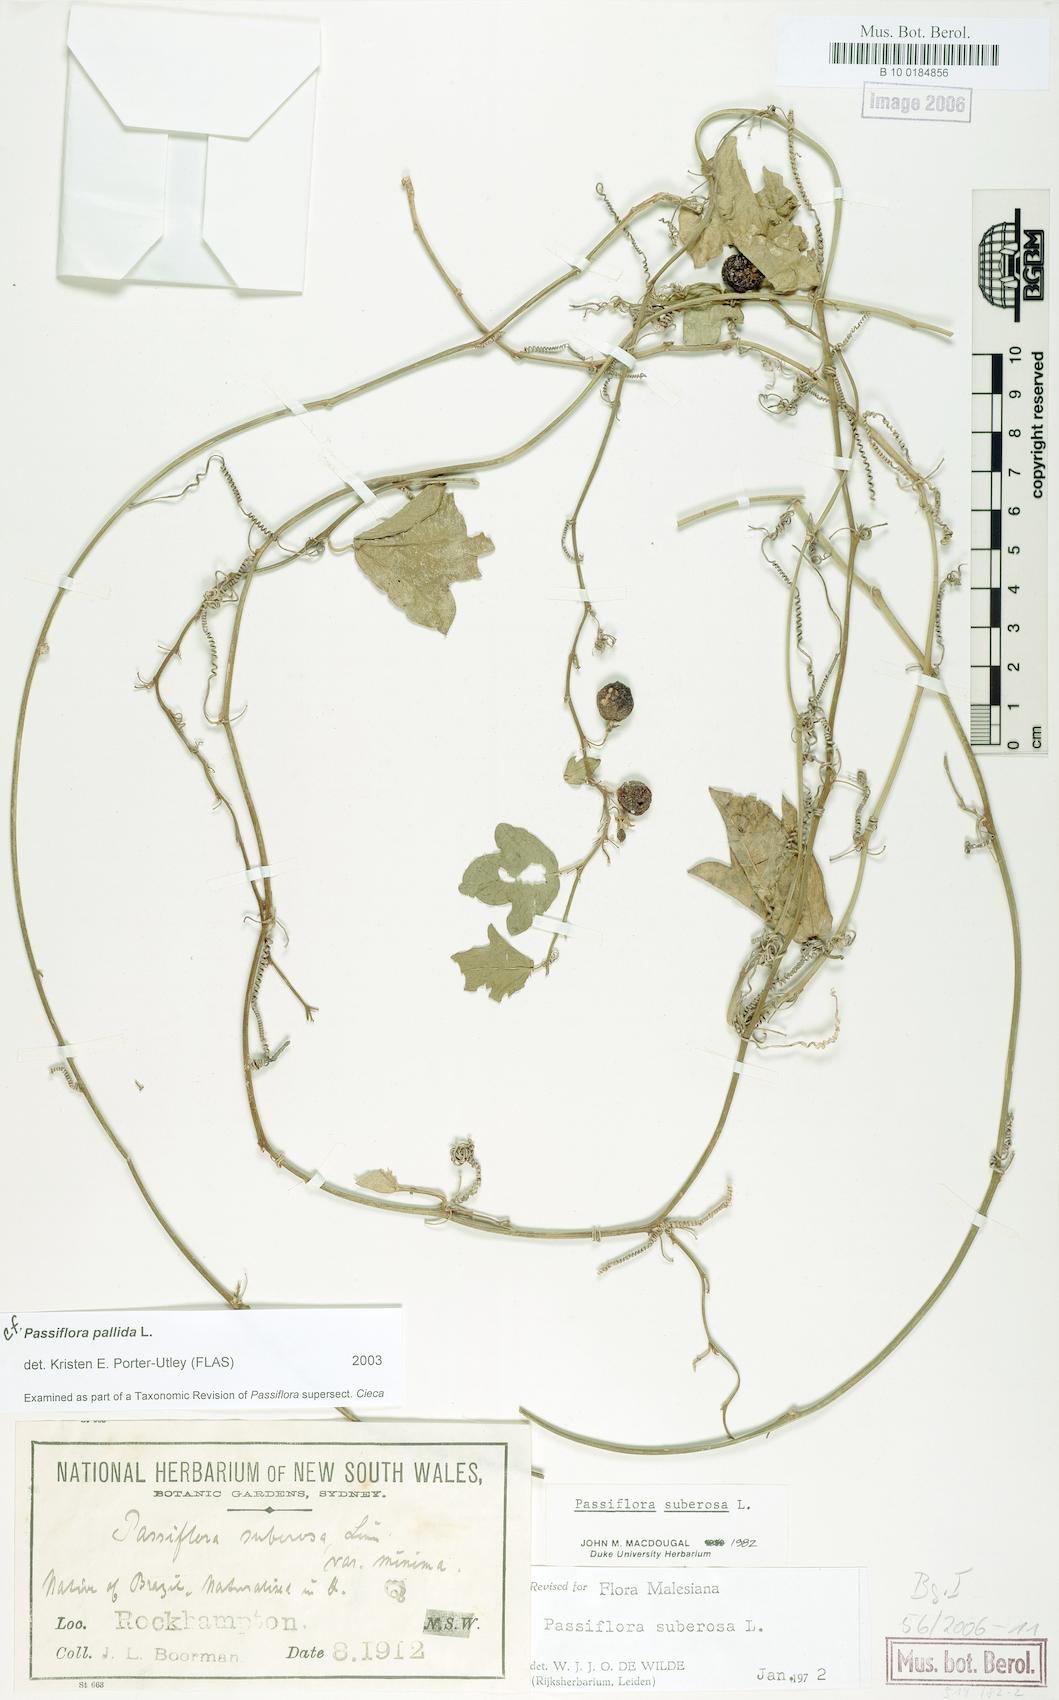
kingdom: Plantae
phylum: Tracheophyta
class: Magnoliopsida
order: Malpighiales
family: Passifloraceae
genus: Passiflora
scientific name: Passiflora pallida
